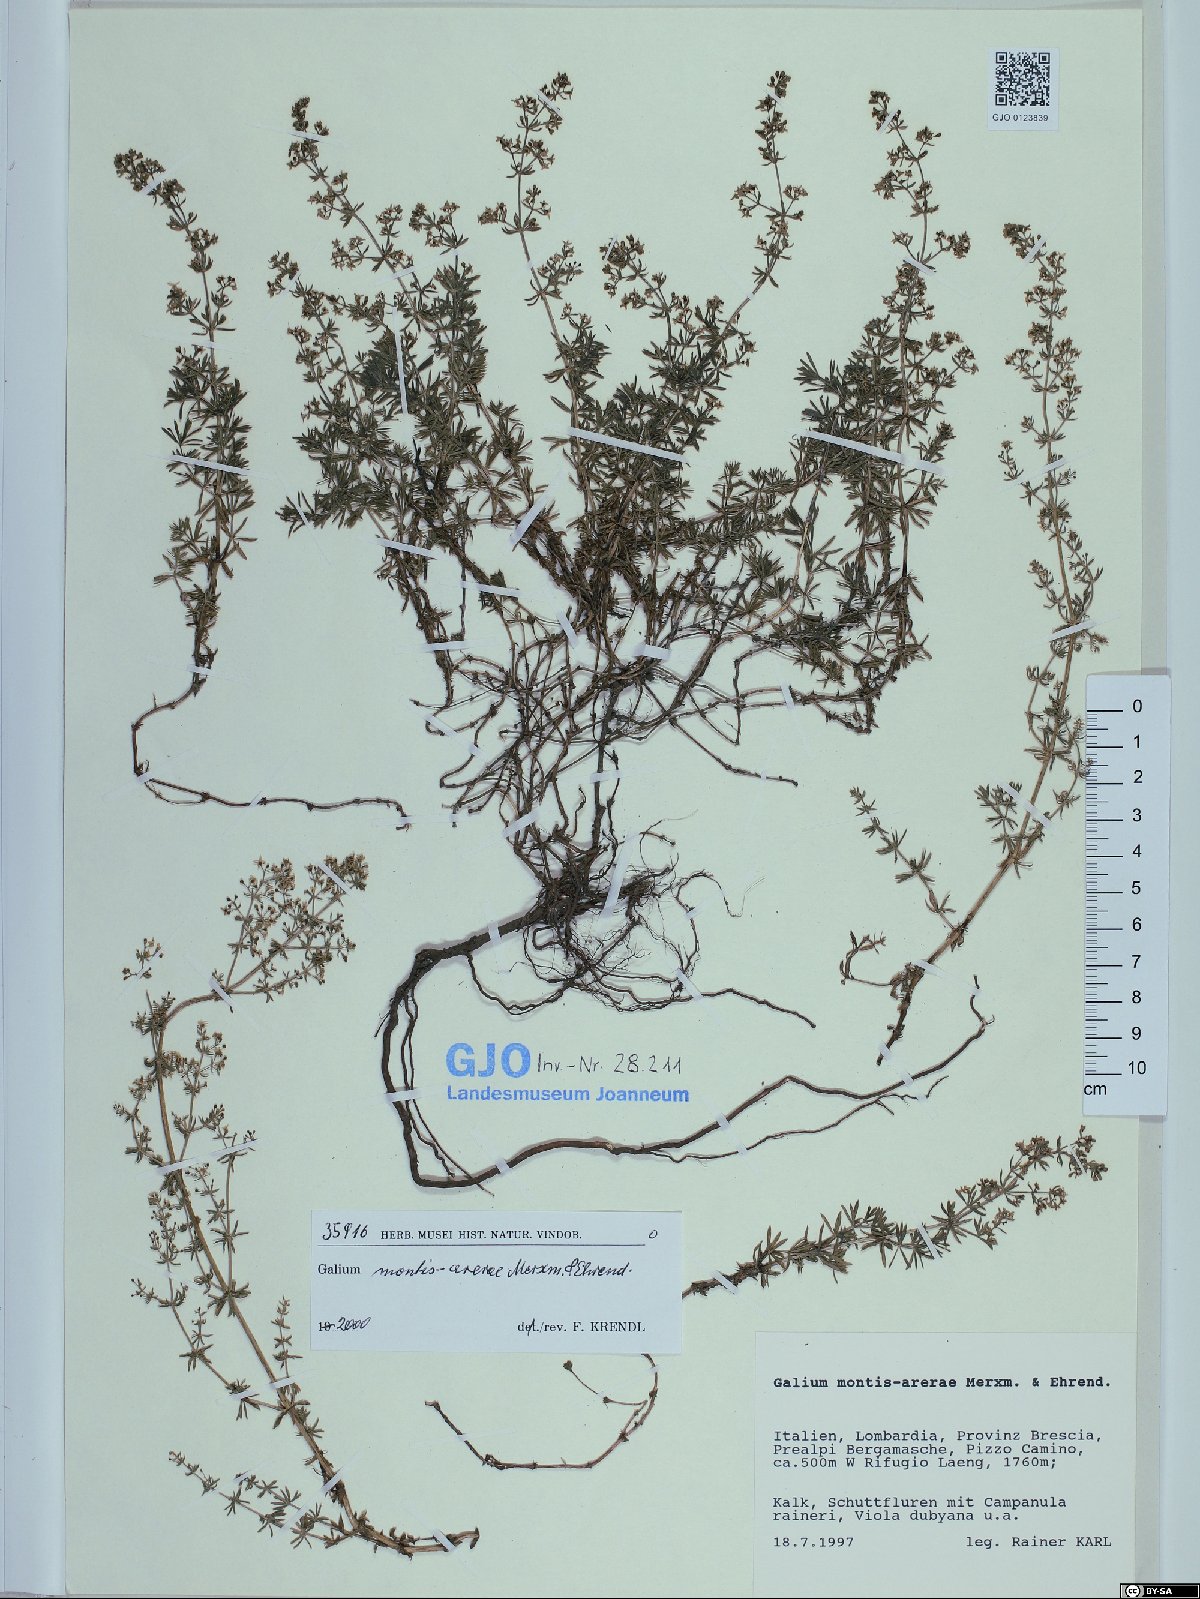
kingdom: Plantae
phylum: Tracheophyta
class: Magnoliopsida
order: Gentianales
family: Rubiaceae
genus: Galium
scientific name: Galium montis-arerae
